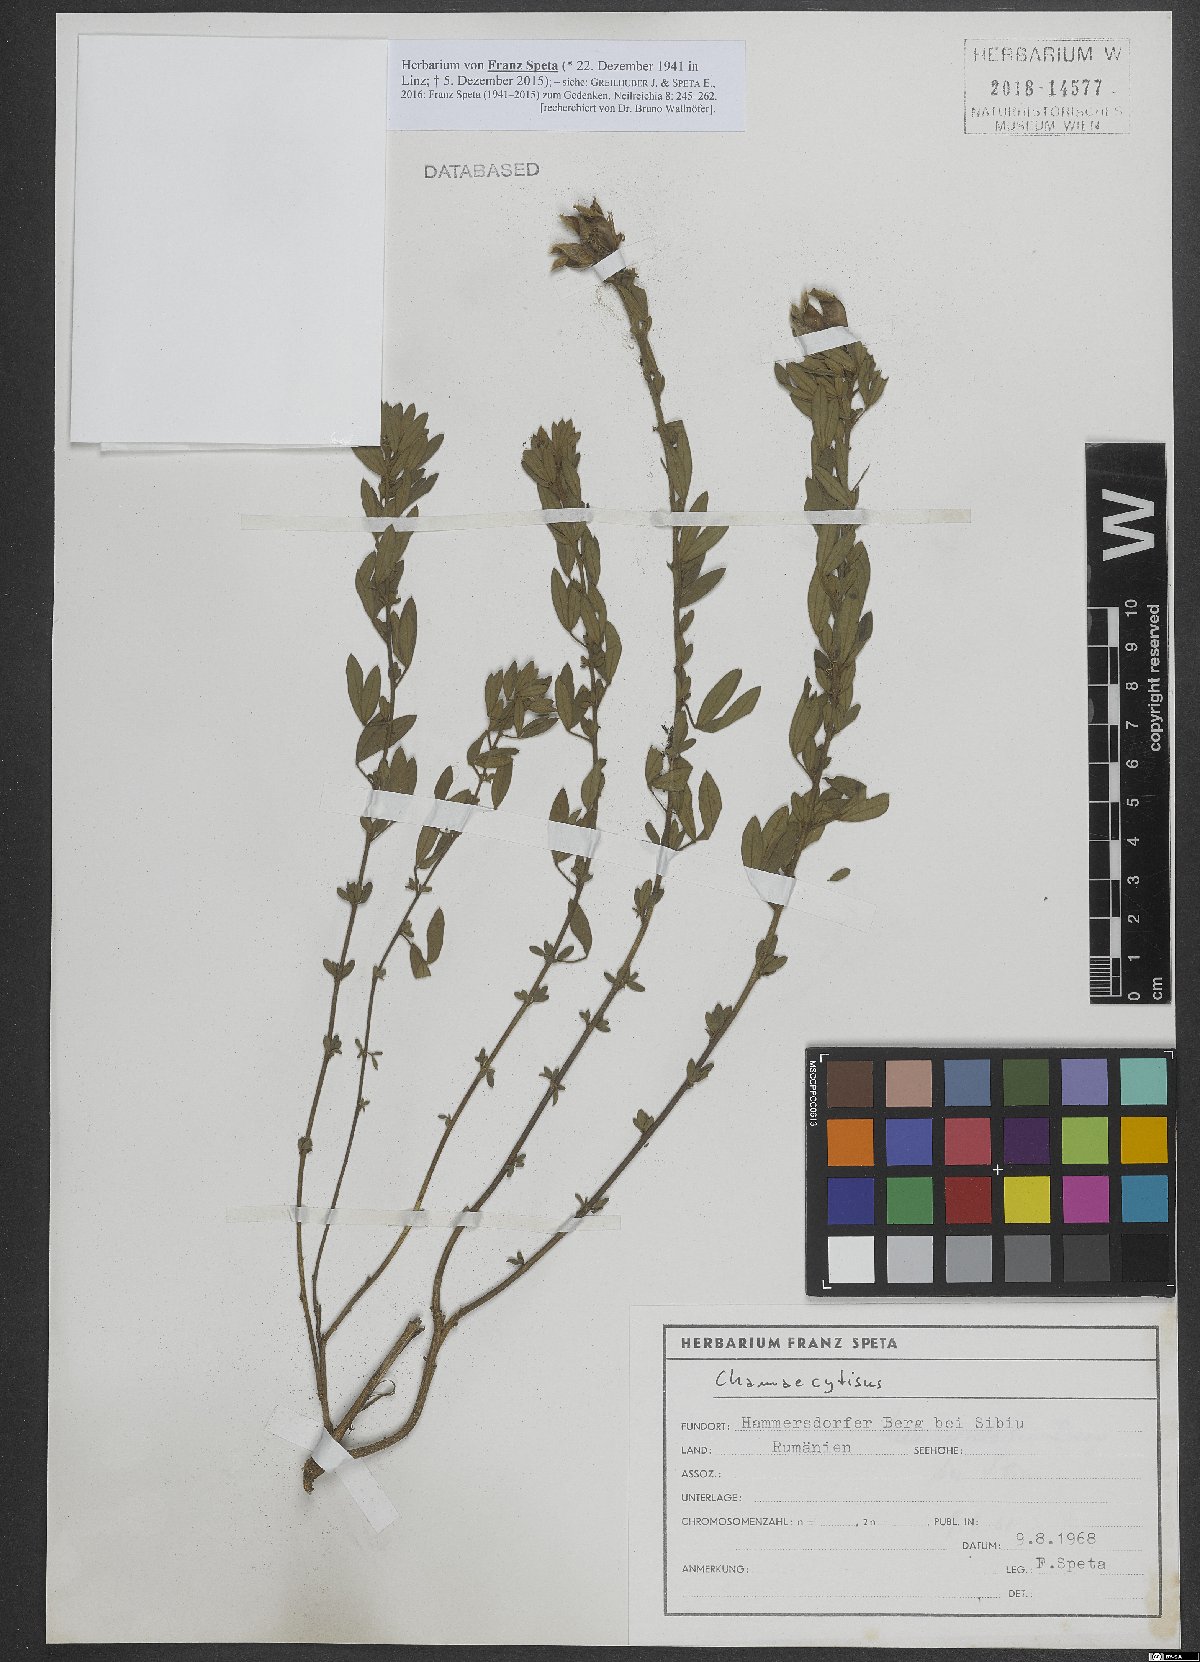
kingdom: Plantae
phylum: Tracheophyta
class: Magnoliopsida
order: Fabales
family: Fabaceae
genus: Chamaecytisus
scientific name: Chamaecytisus
